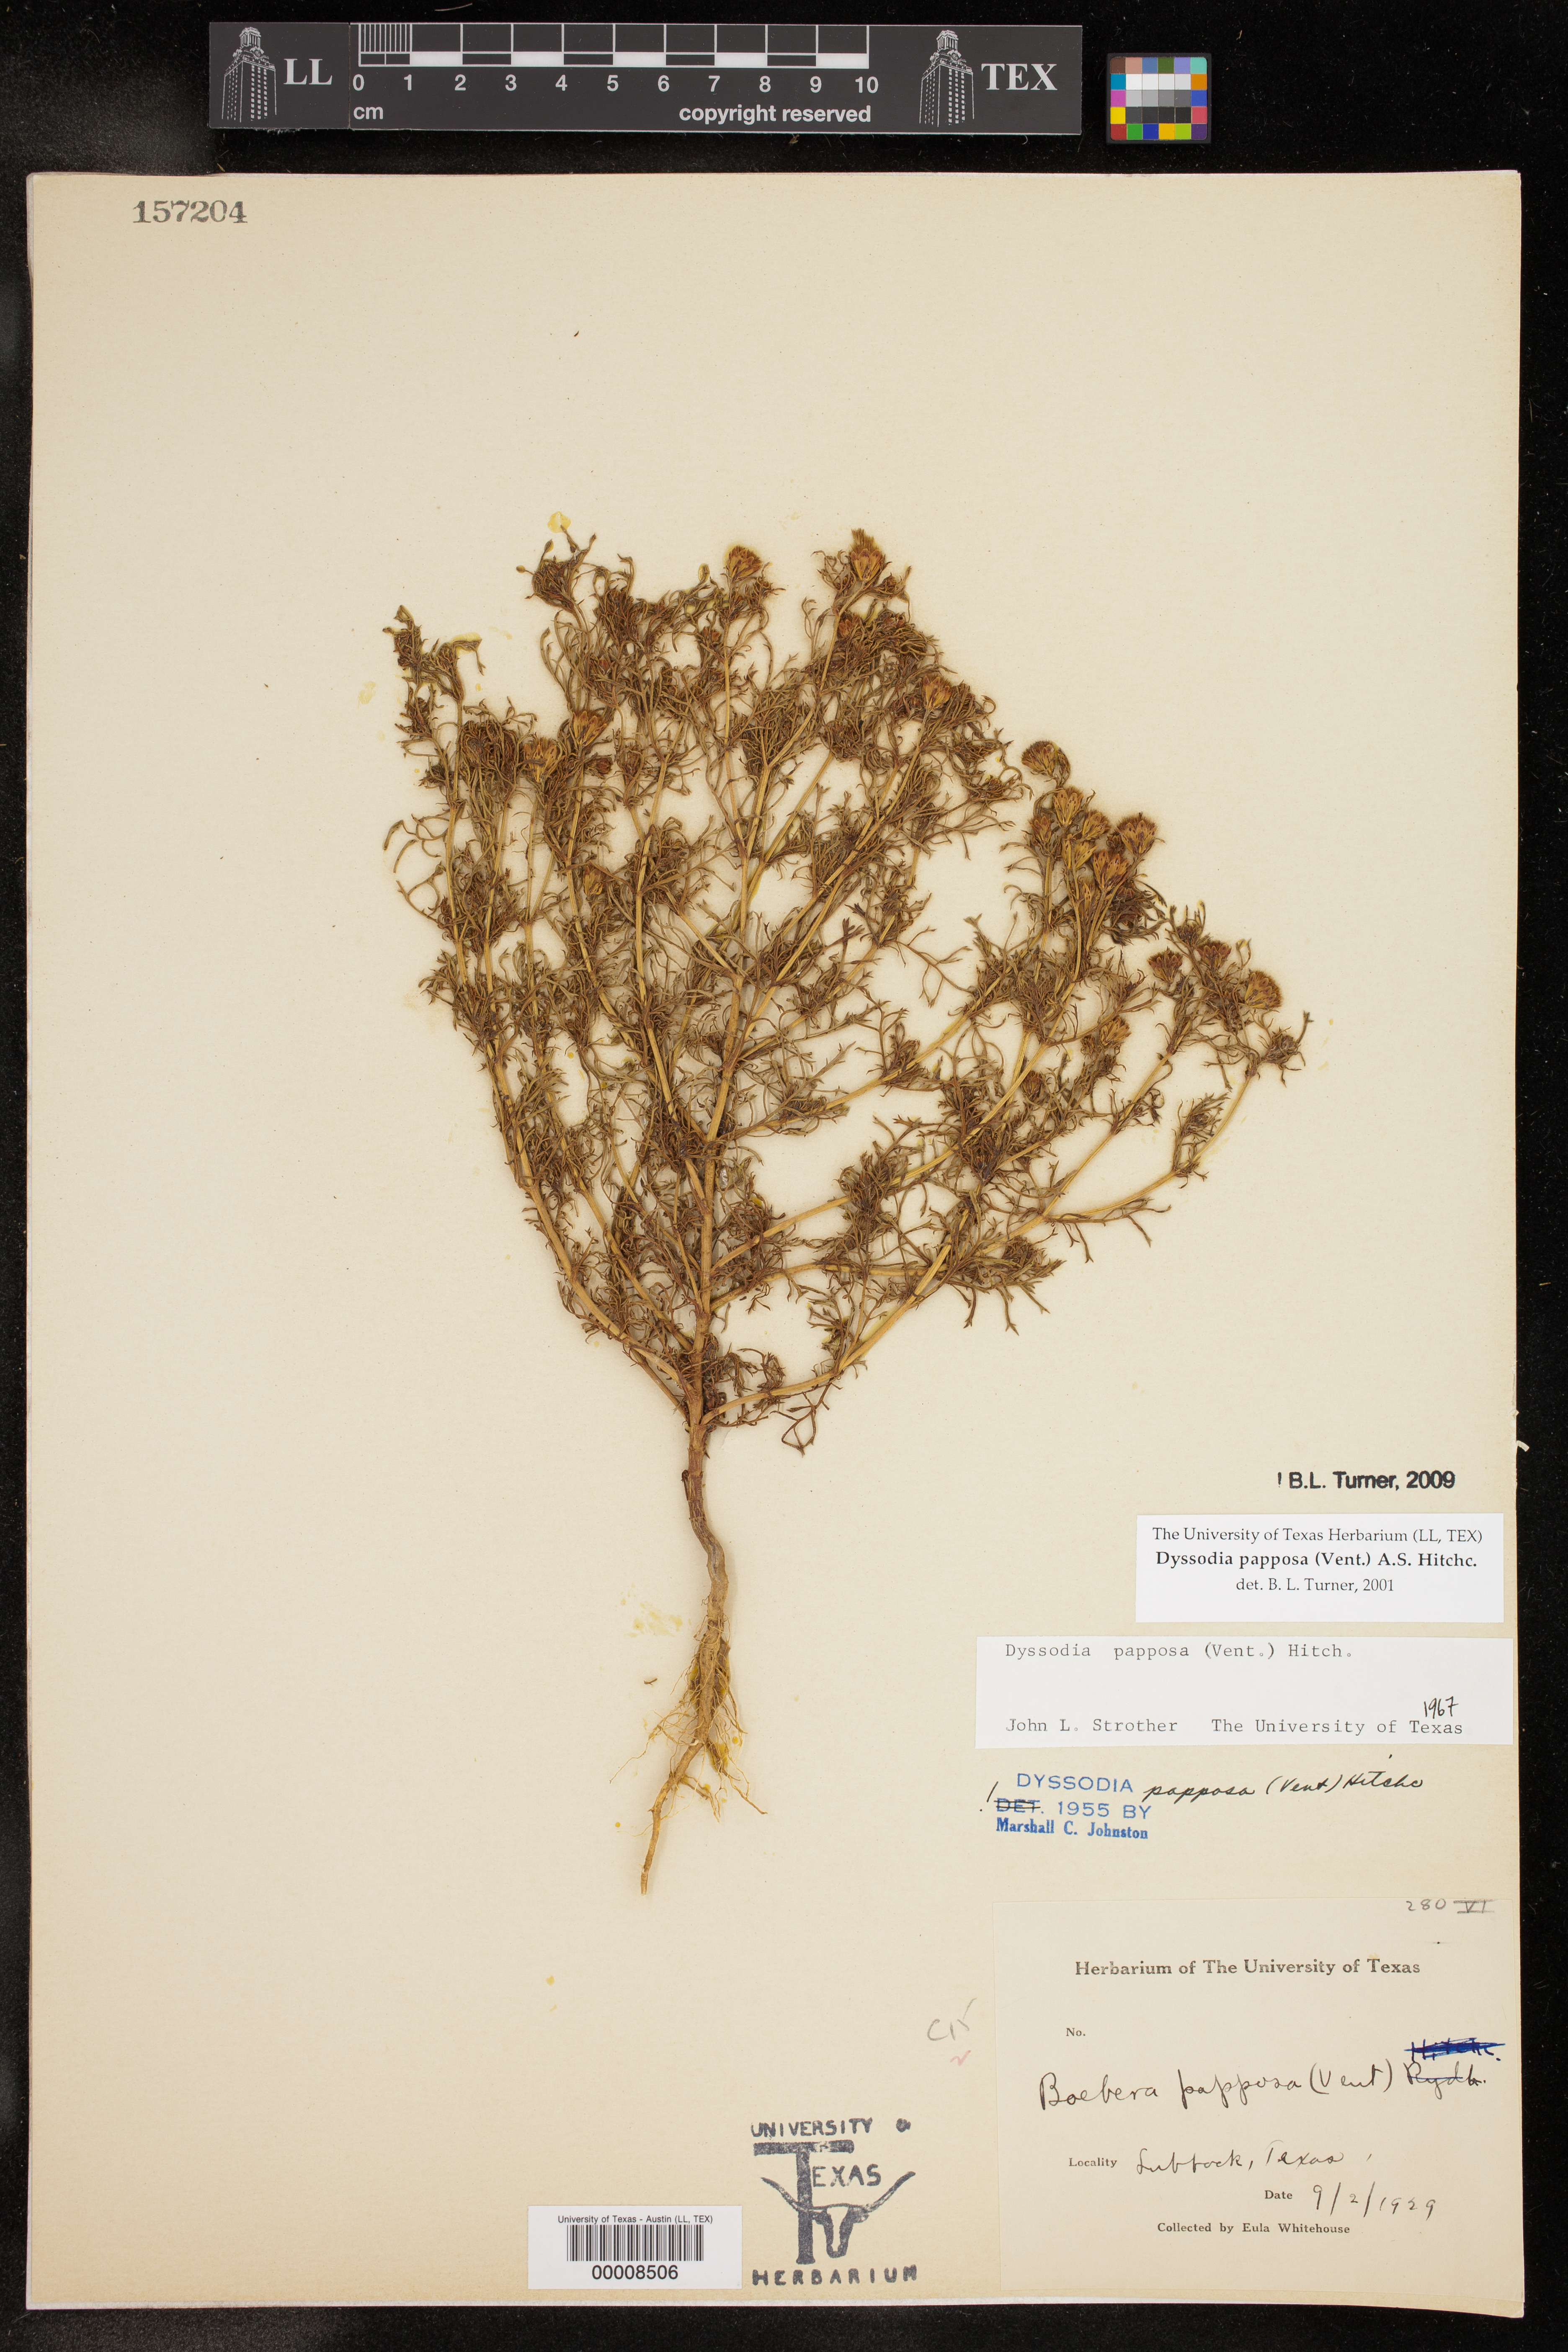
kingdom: Plantae
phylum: Tracheophyta
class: Magnoliopsida
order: Asterales
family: Asteraceae
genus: Dyssodia
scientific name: Dyssodia papposa
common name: Dogweed
